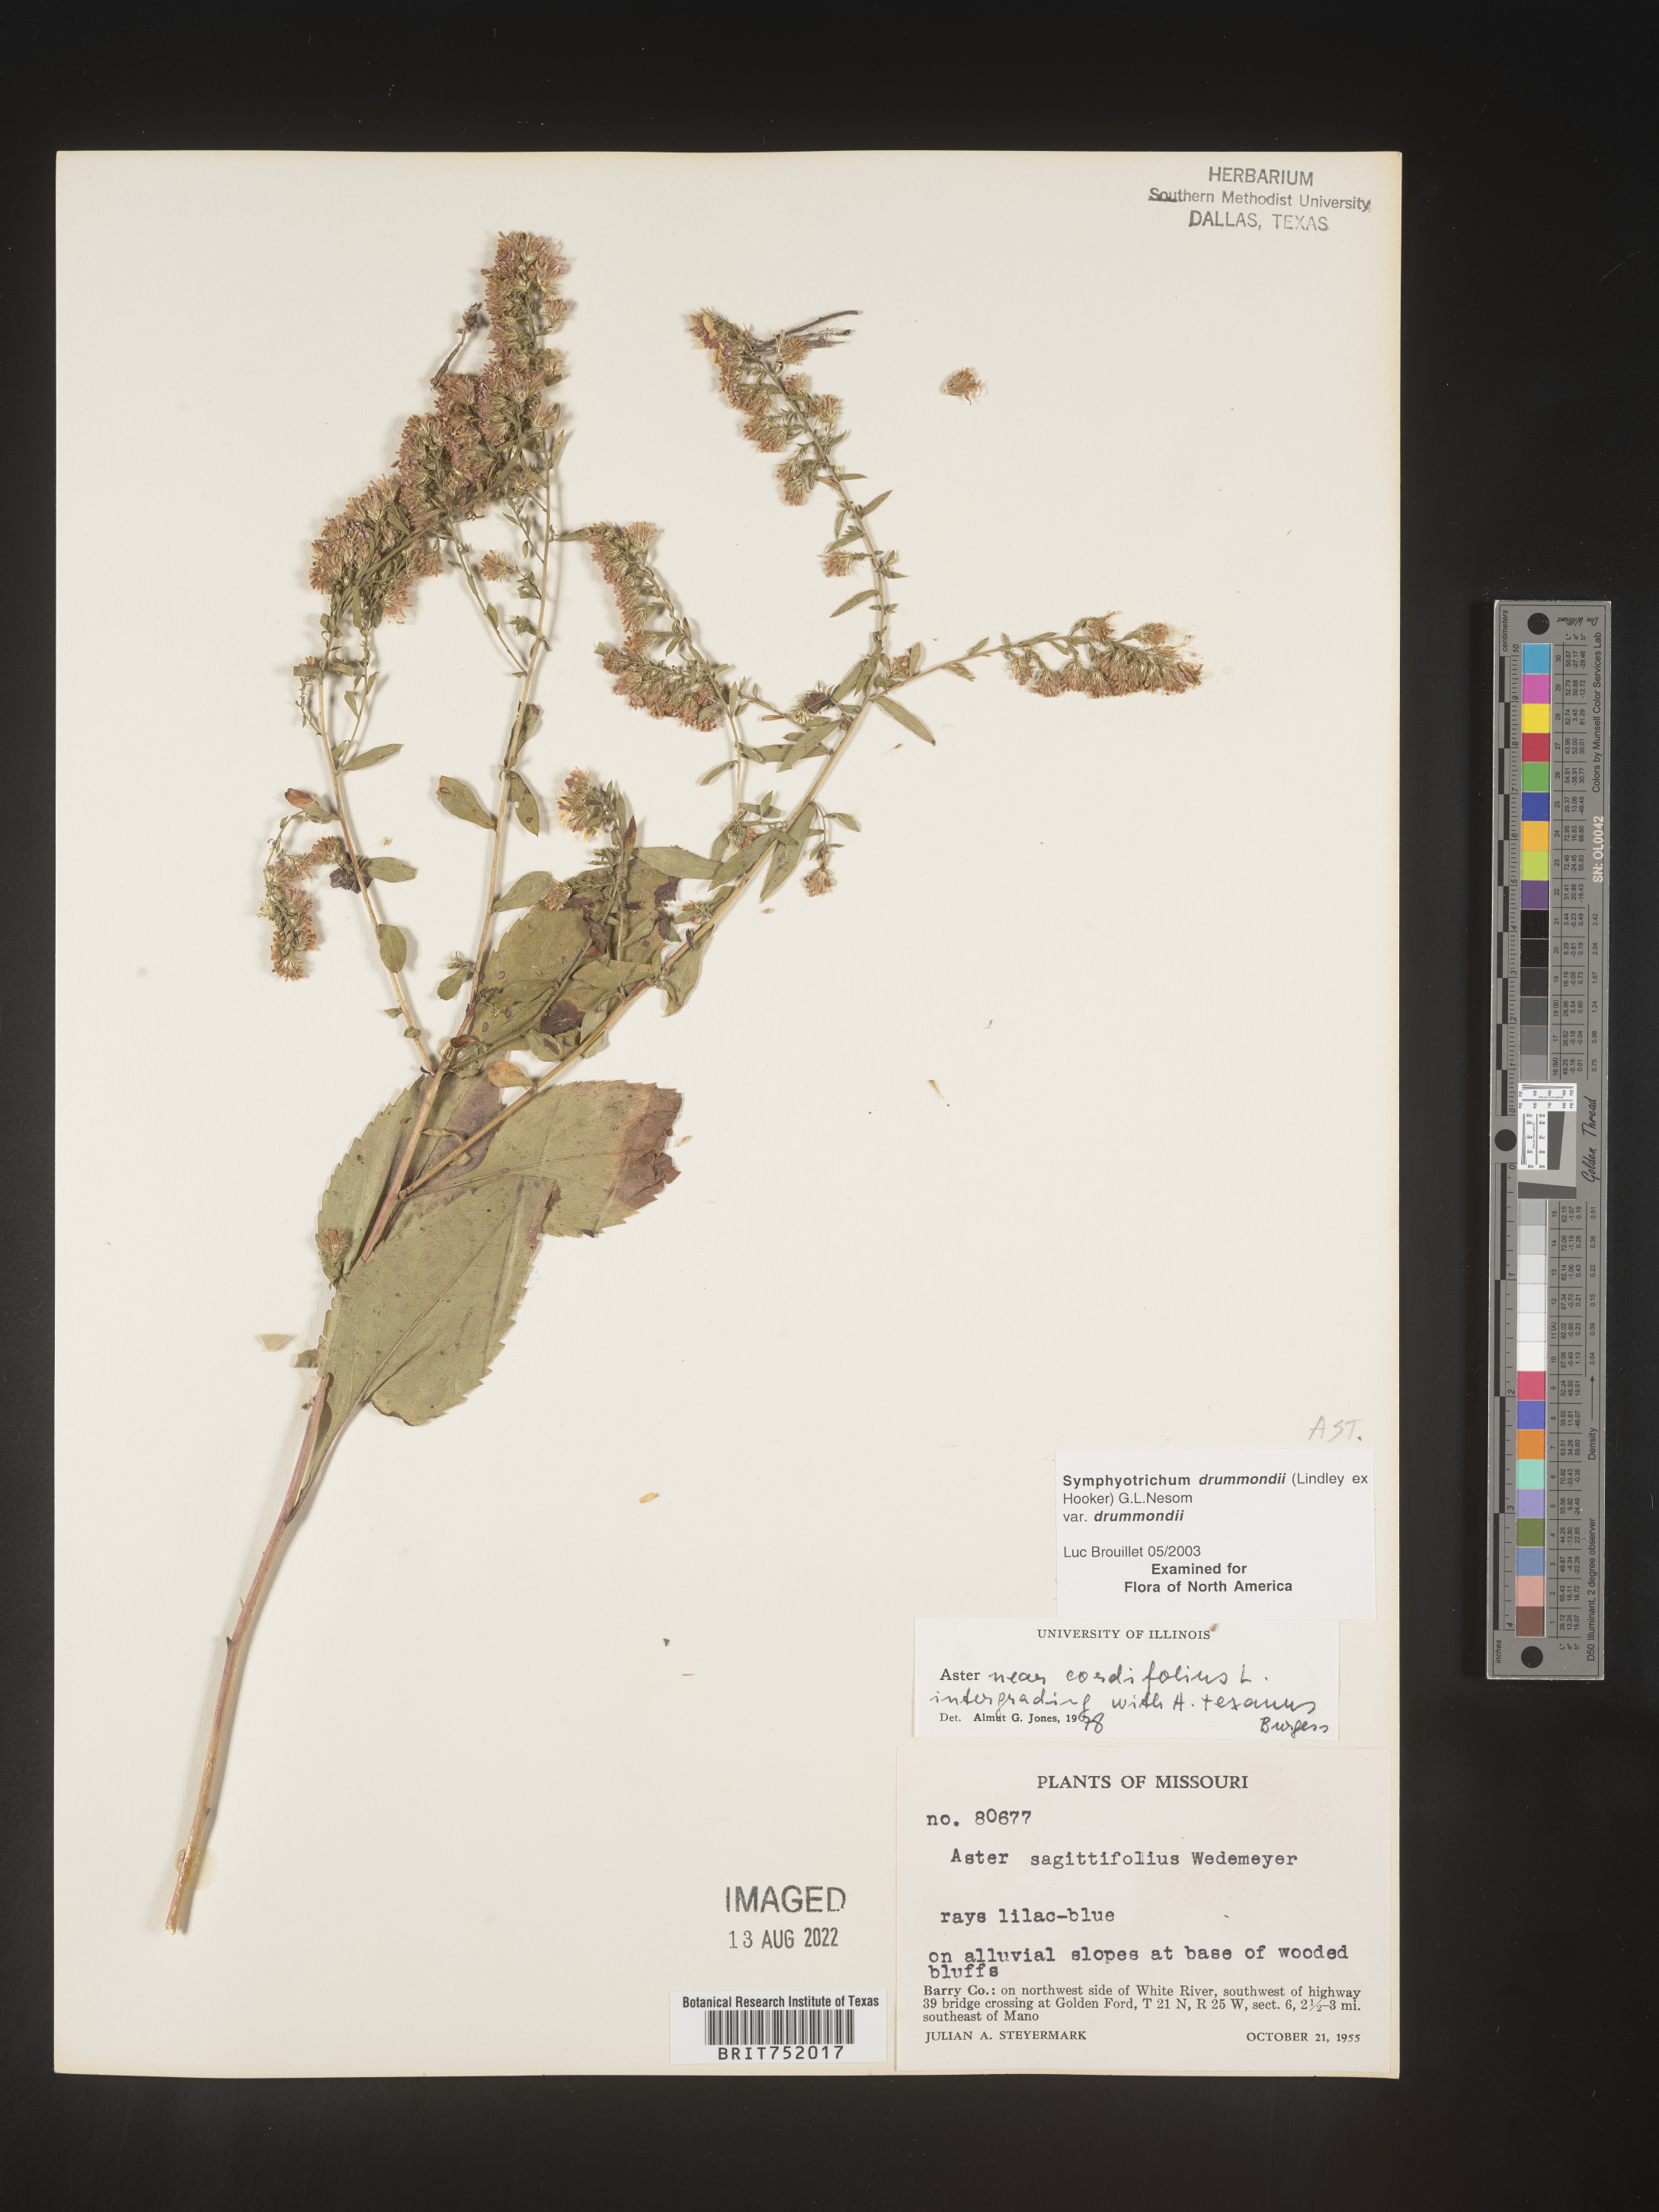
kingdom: Plantae
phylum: Tracheophyta
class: Magnoliopsida
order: Asterales
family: Asteraceae
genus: Symphyotrichum
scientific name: Symphyotrichum drummondii
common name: Drummond's aster
